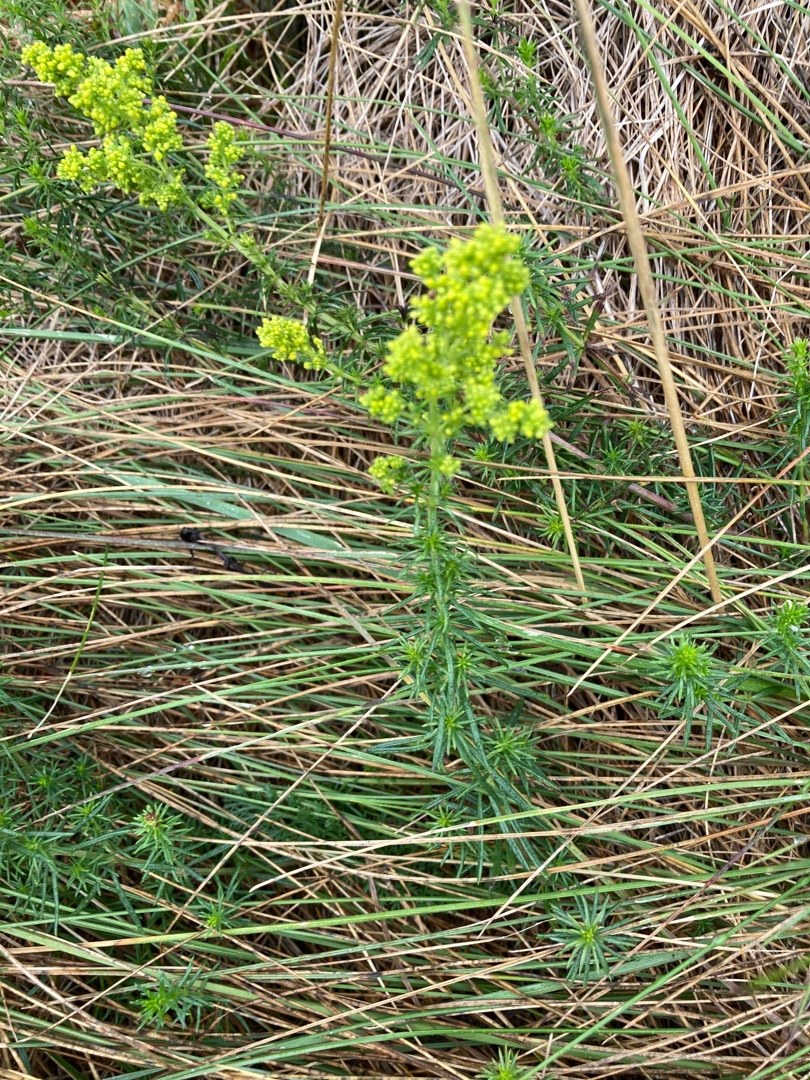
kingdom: Plantae
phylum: Tracheophyta
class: Magnoliopsida
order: Gentianales
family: Rubiaceae
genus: Galium
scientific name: Galium verum
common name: Gul snerre
